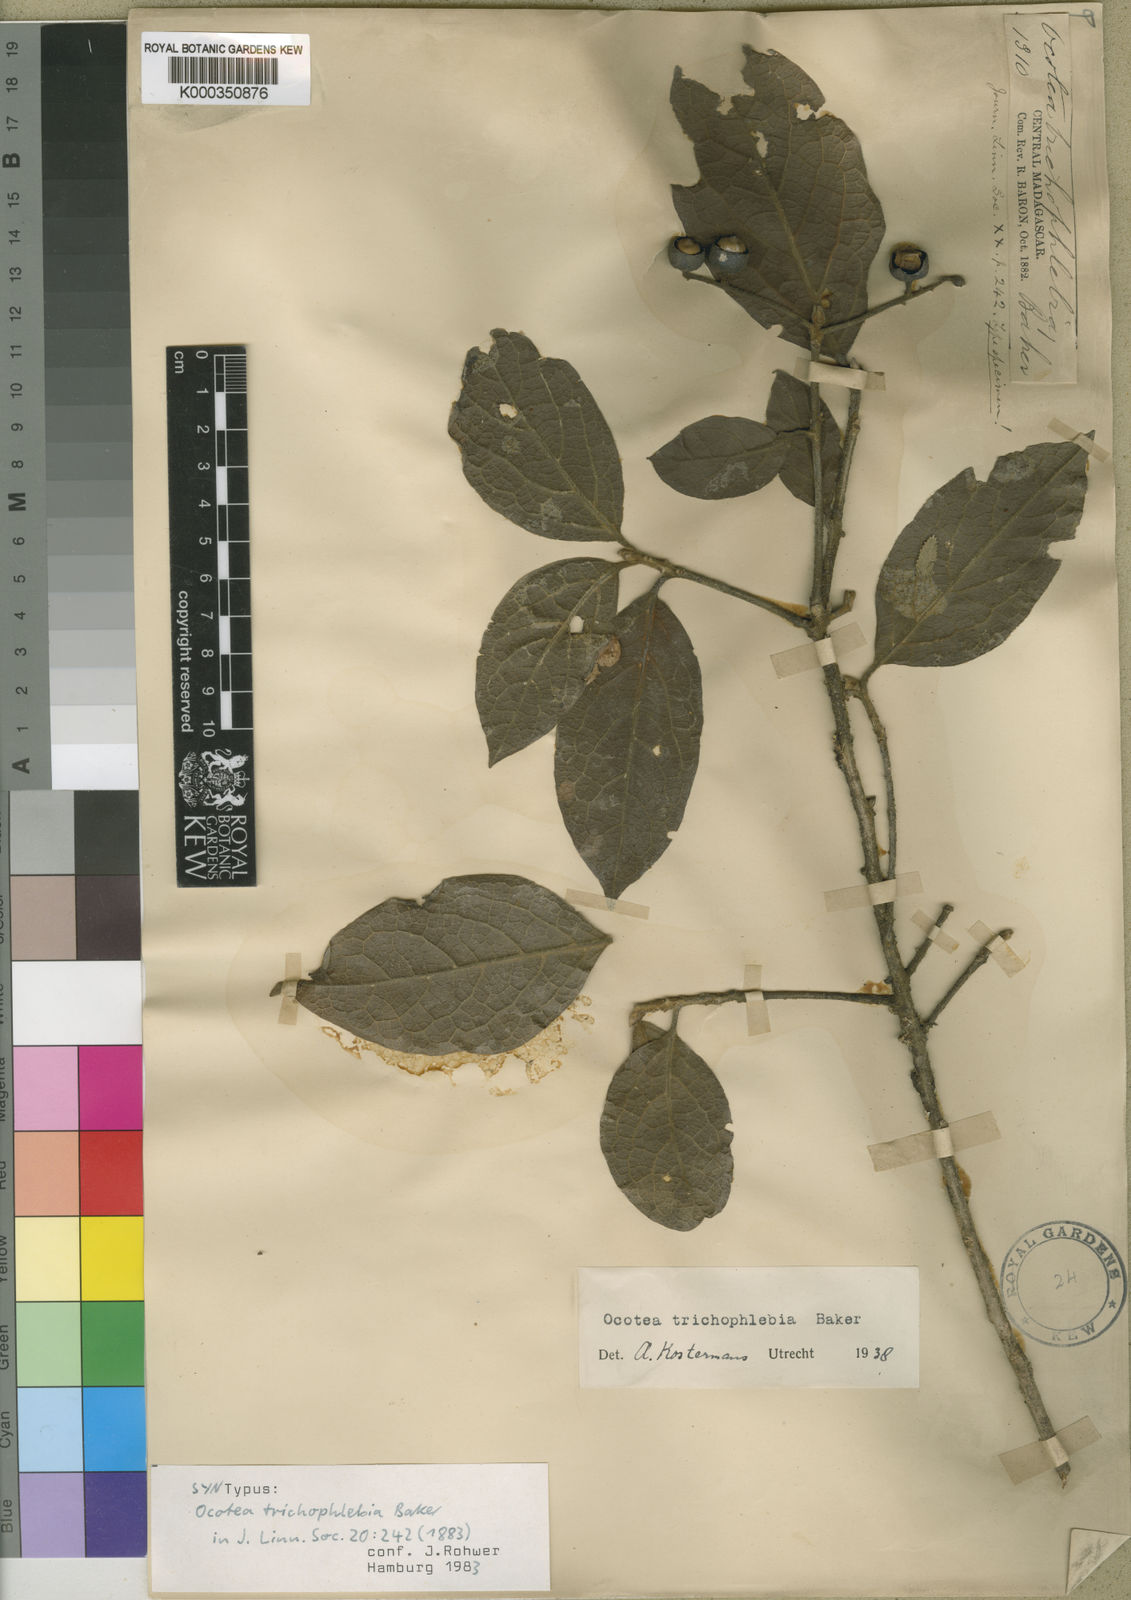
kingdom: Plantae
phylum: Tracheophyta
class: Magnoliopsida
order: Laurales
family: Lauraceae
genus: Mespilodaphne
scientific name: Mespilodaphne trichophlebia
